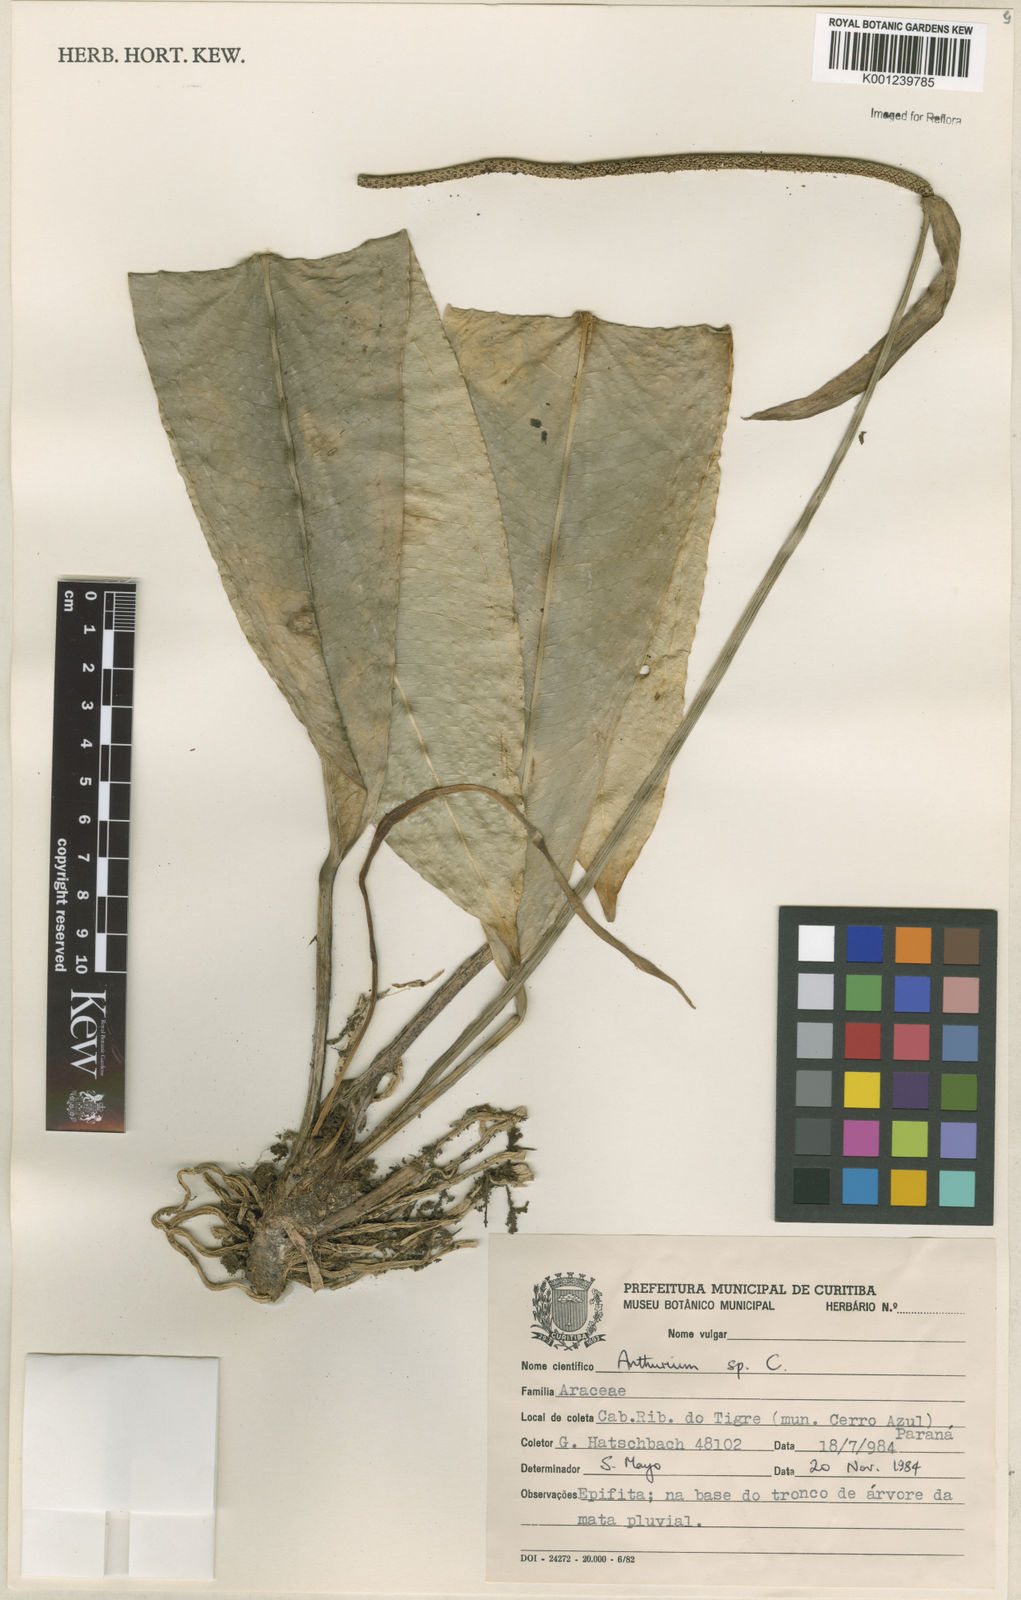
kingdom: Plantae
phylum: Tracheophyta
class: Liliopsida
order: Alismatales
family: Araceae
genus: Anthurium
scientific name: Anthurium
